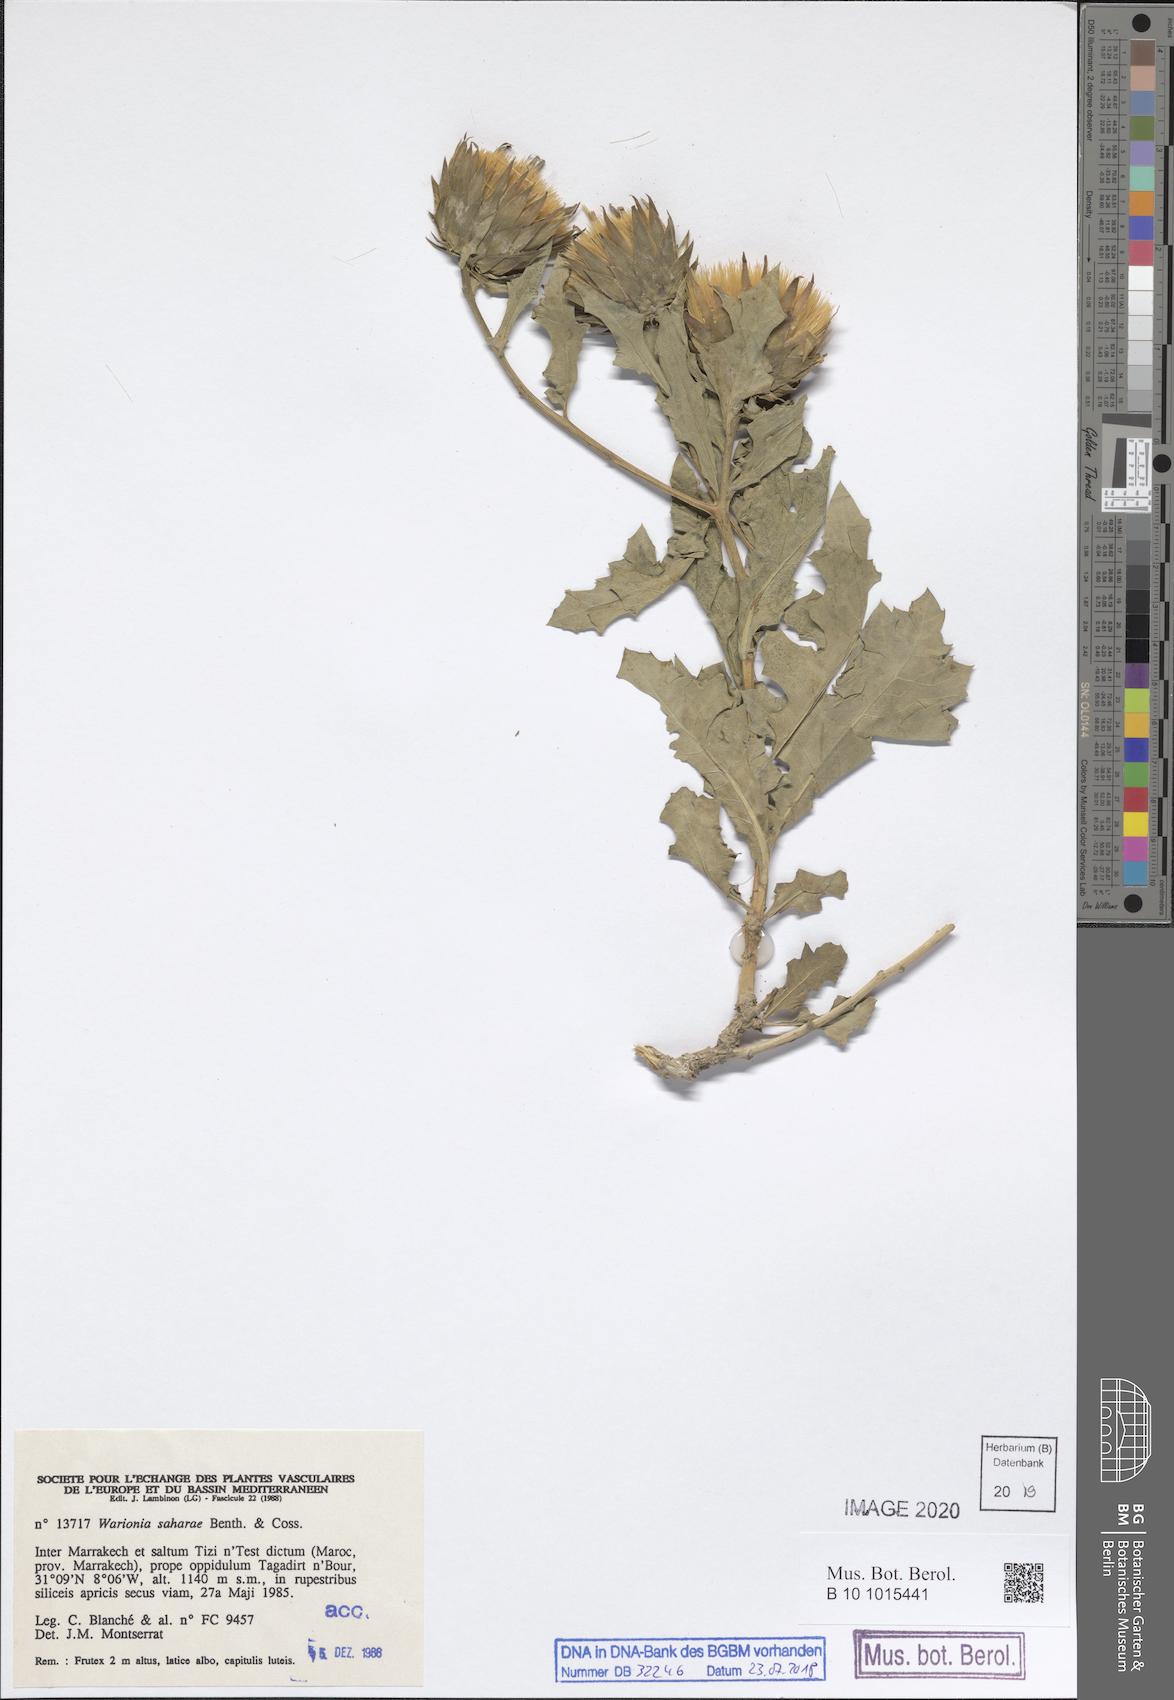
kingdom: Plantae
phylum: Tracheophyta
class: Magnoliopsida
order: Asterales
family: Asteraceae
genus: Warionia
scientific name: Warionia saharae
